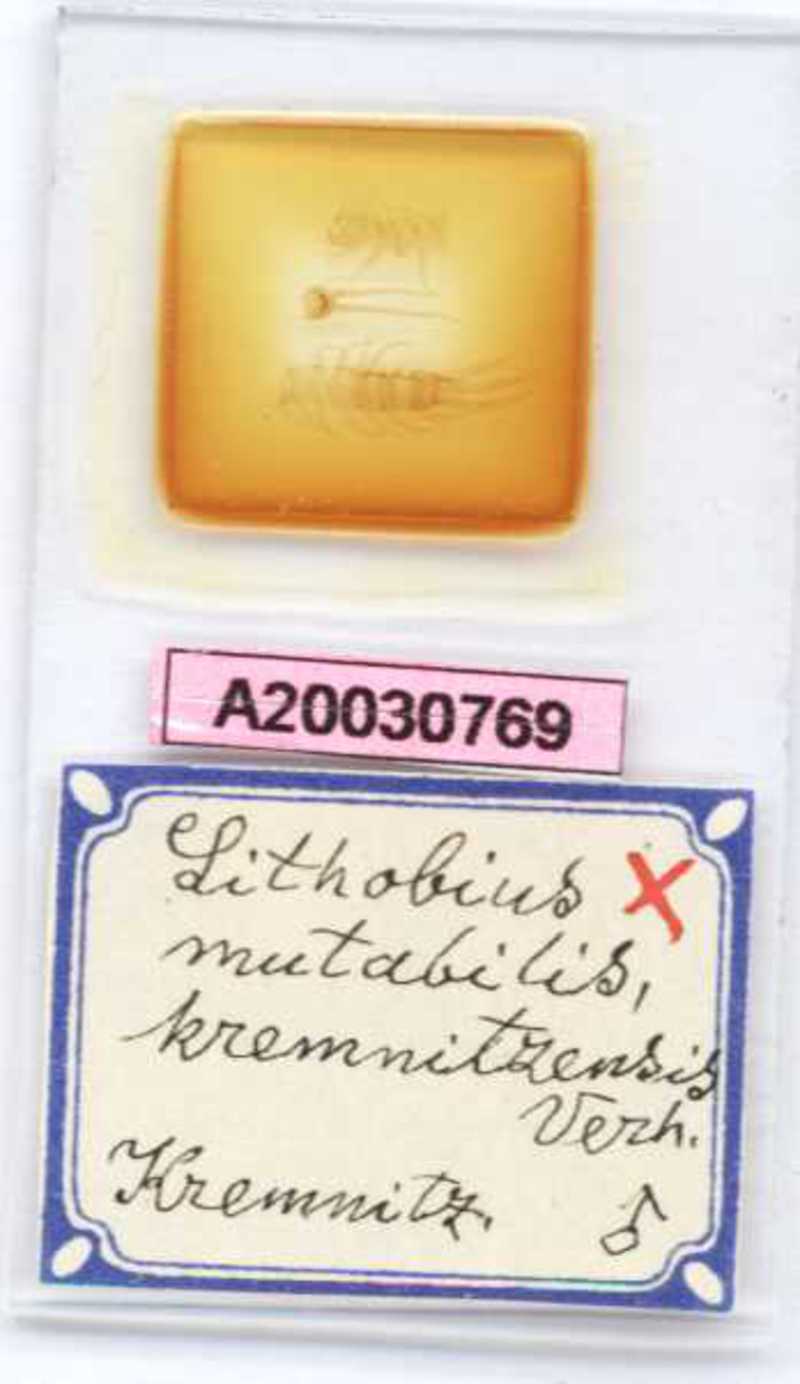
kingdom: Animalia
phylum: Arthropoda
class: Chilopoda
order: Lithobiomorpha
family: Lithobiidae
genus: Lithobius
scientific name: Lithobius mutabilis
